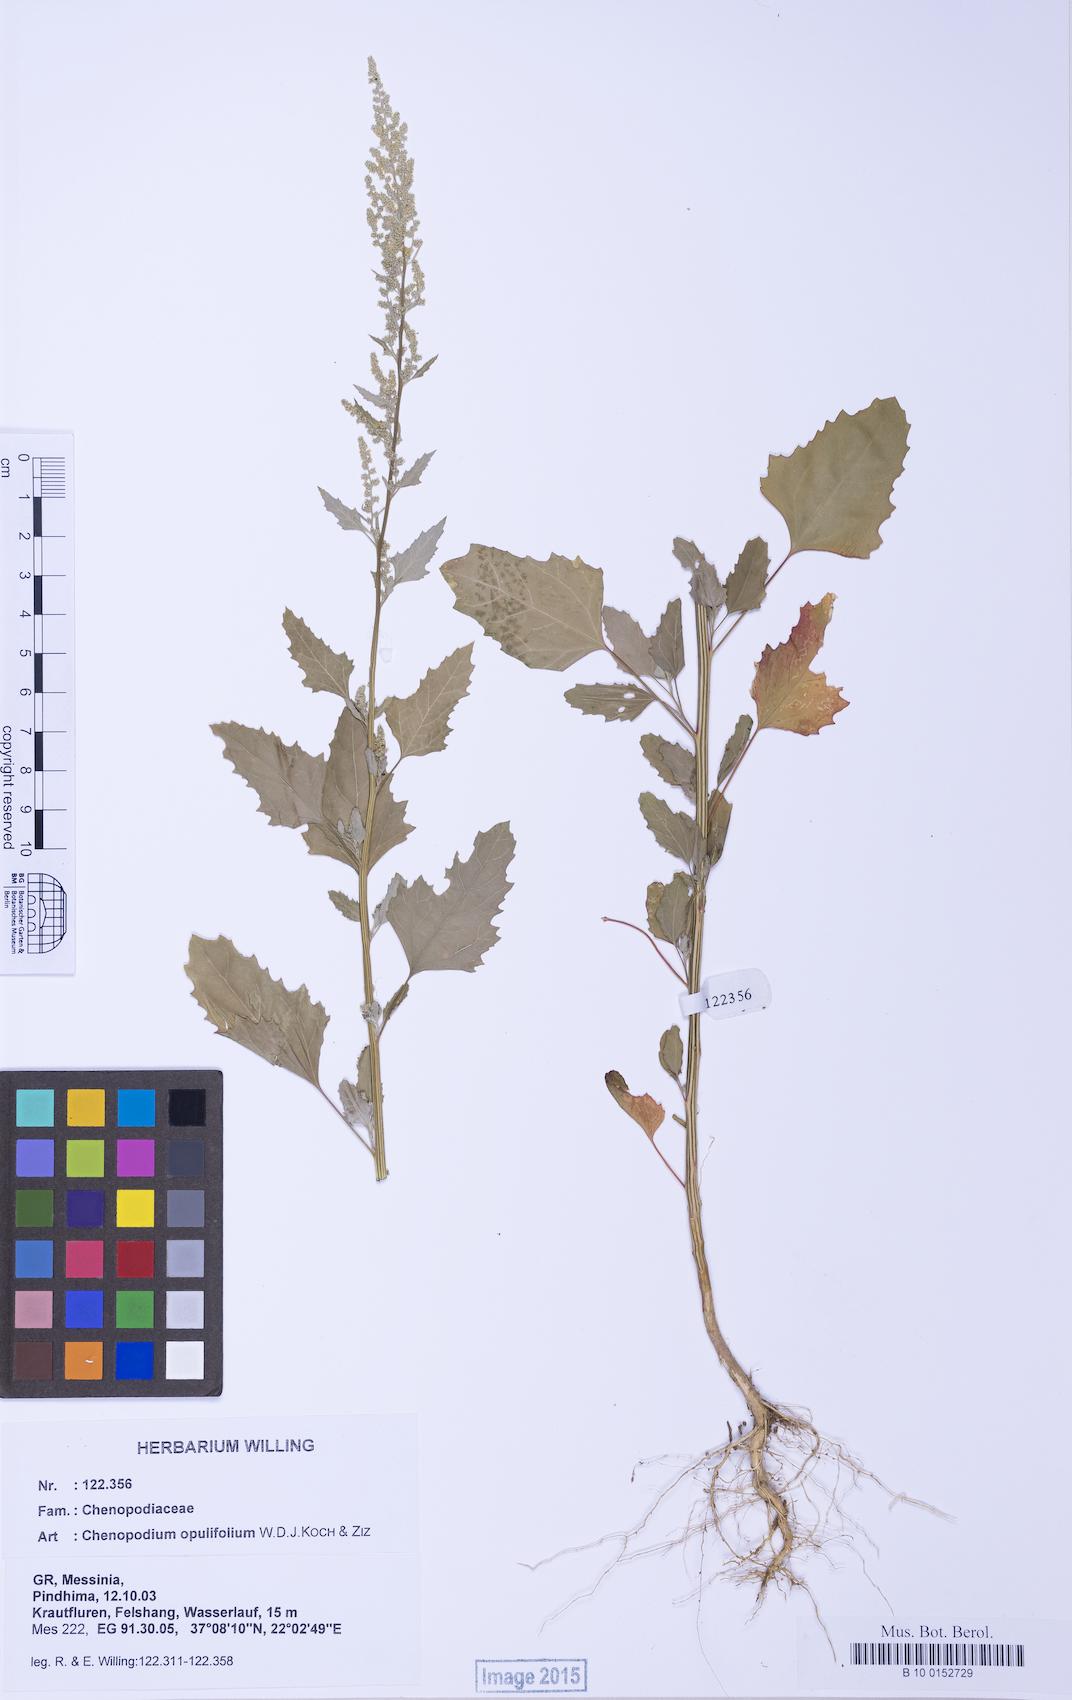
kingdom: Plantae
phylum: Tracheophyta
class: Magnoliopsida
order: Caryophyllales
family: Amaranthaceae
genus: Chenopodium
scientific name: Chenopodium album
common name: Fat-hen
